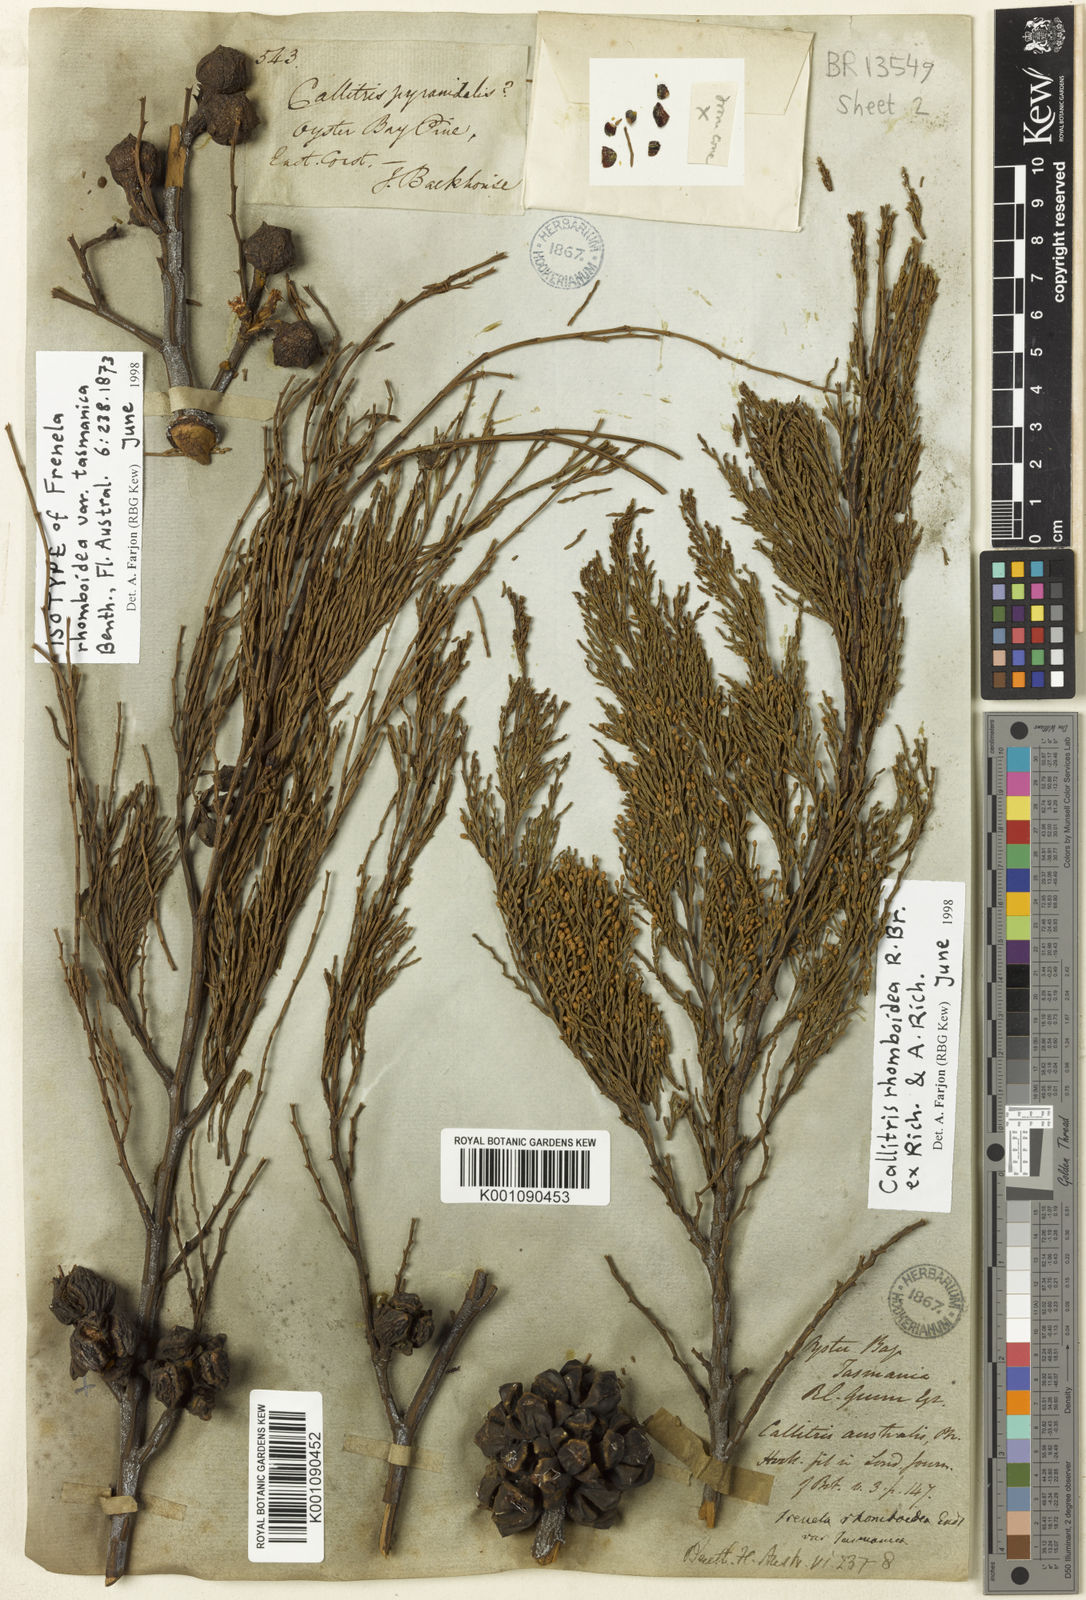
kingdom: Plantae
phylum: Tracheophyta
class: Pinopsida
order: Pinales
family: Cupressaceae
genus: Callitris
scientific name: Callitris rhomboidea
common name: Illawara mountain pine
